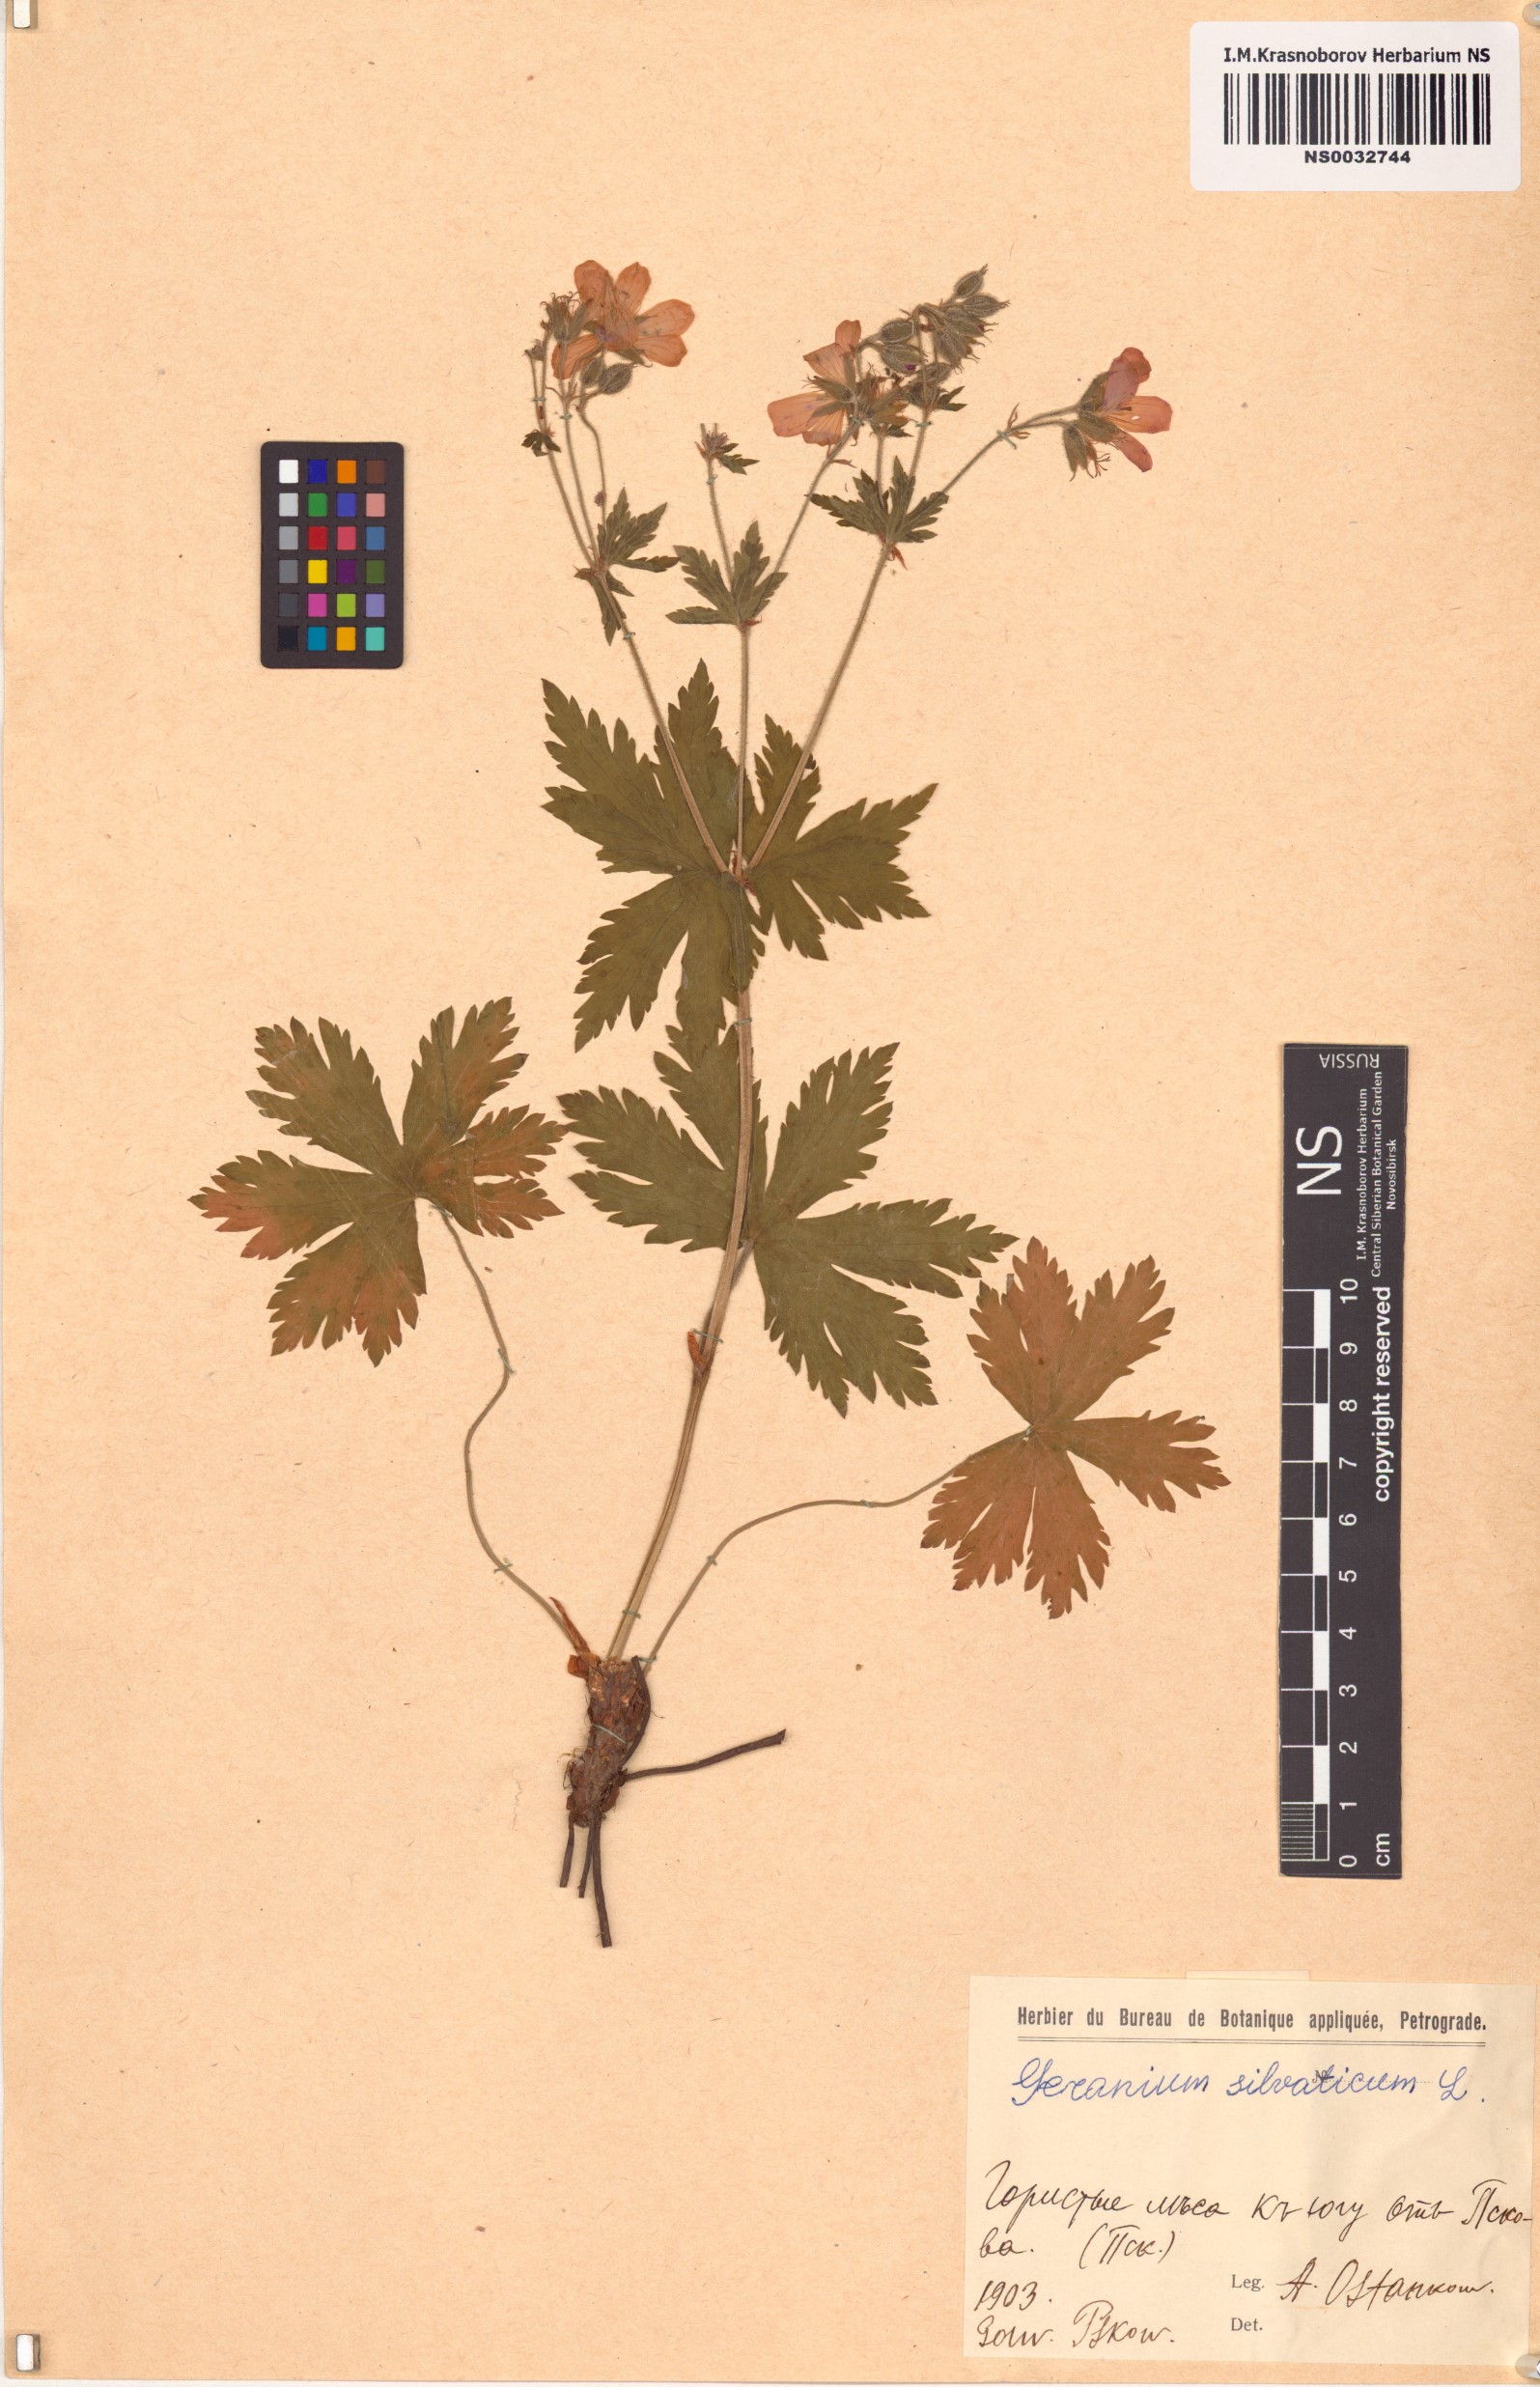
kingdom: Plantae
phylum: Tracheophyta
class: Magnoliopsida
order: Geraniales
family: Geraniaceae
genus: Geranium
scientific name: Geranium sylvaticum
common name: Wood crane's-bill
